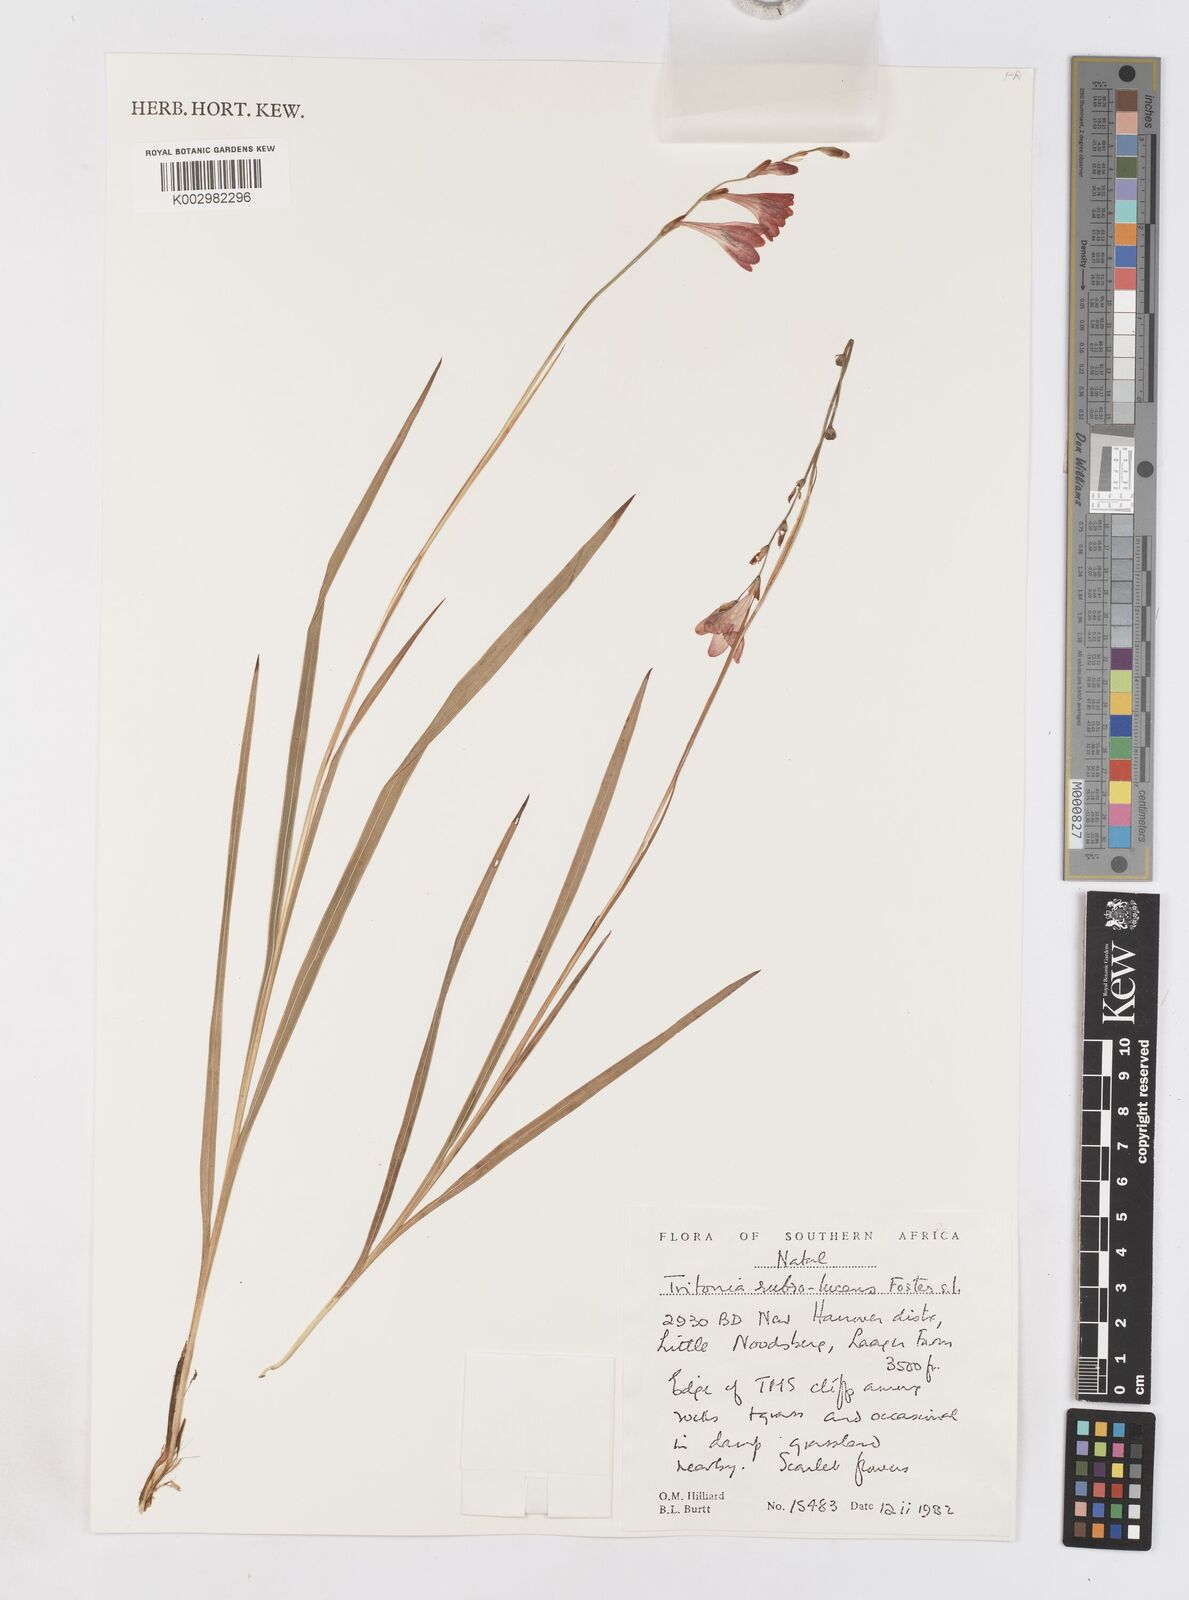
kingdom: Plantae
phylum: Tracheophyta
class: Liliopsida
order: Asparagales
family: Iridaceae
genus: Tritonia
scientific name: Tritonia disticha
